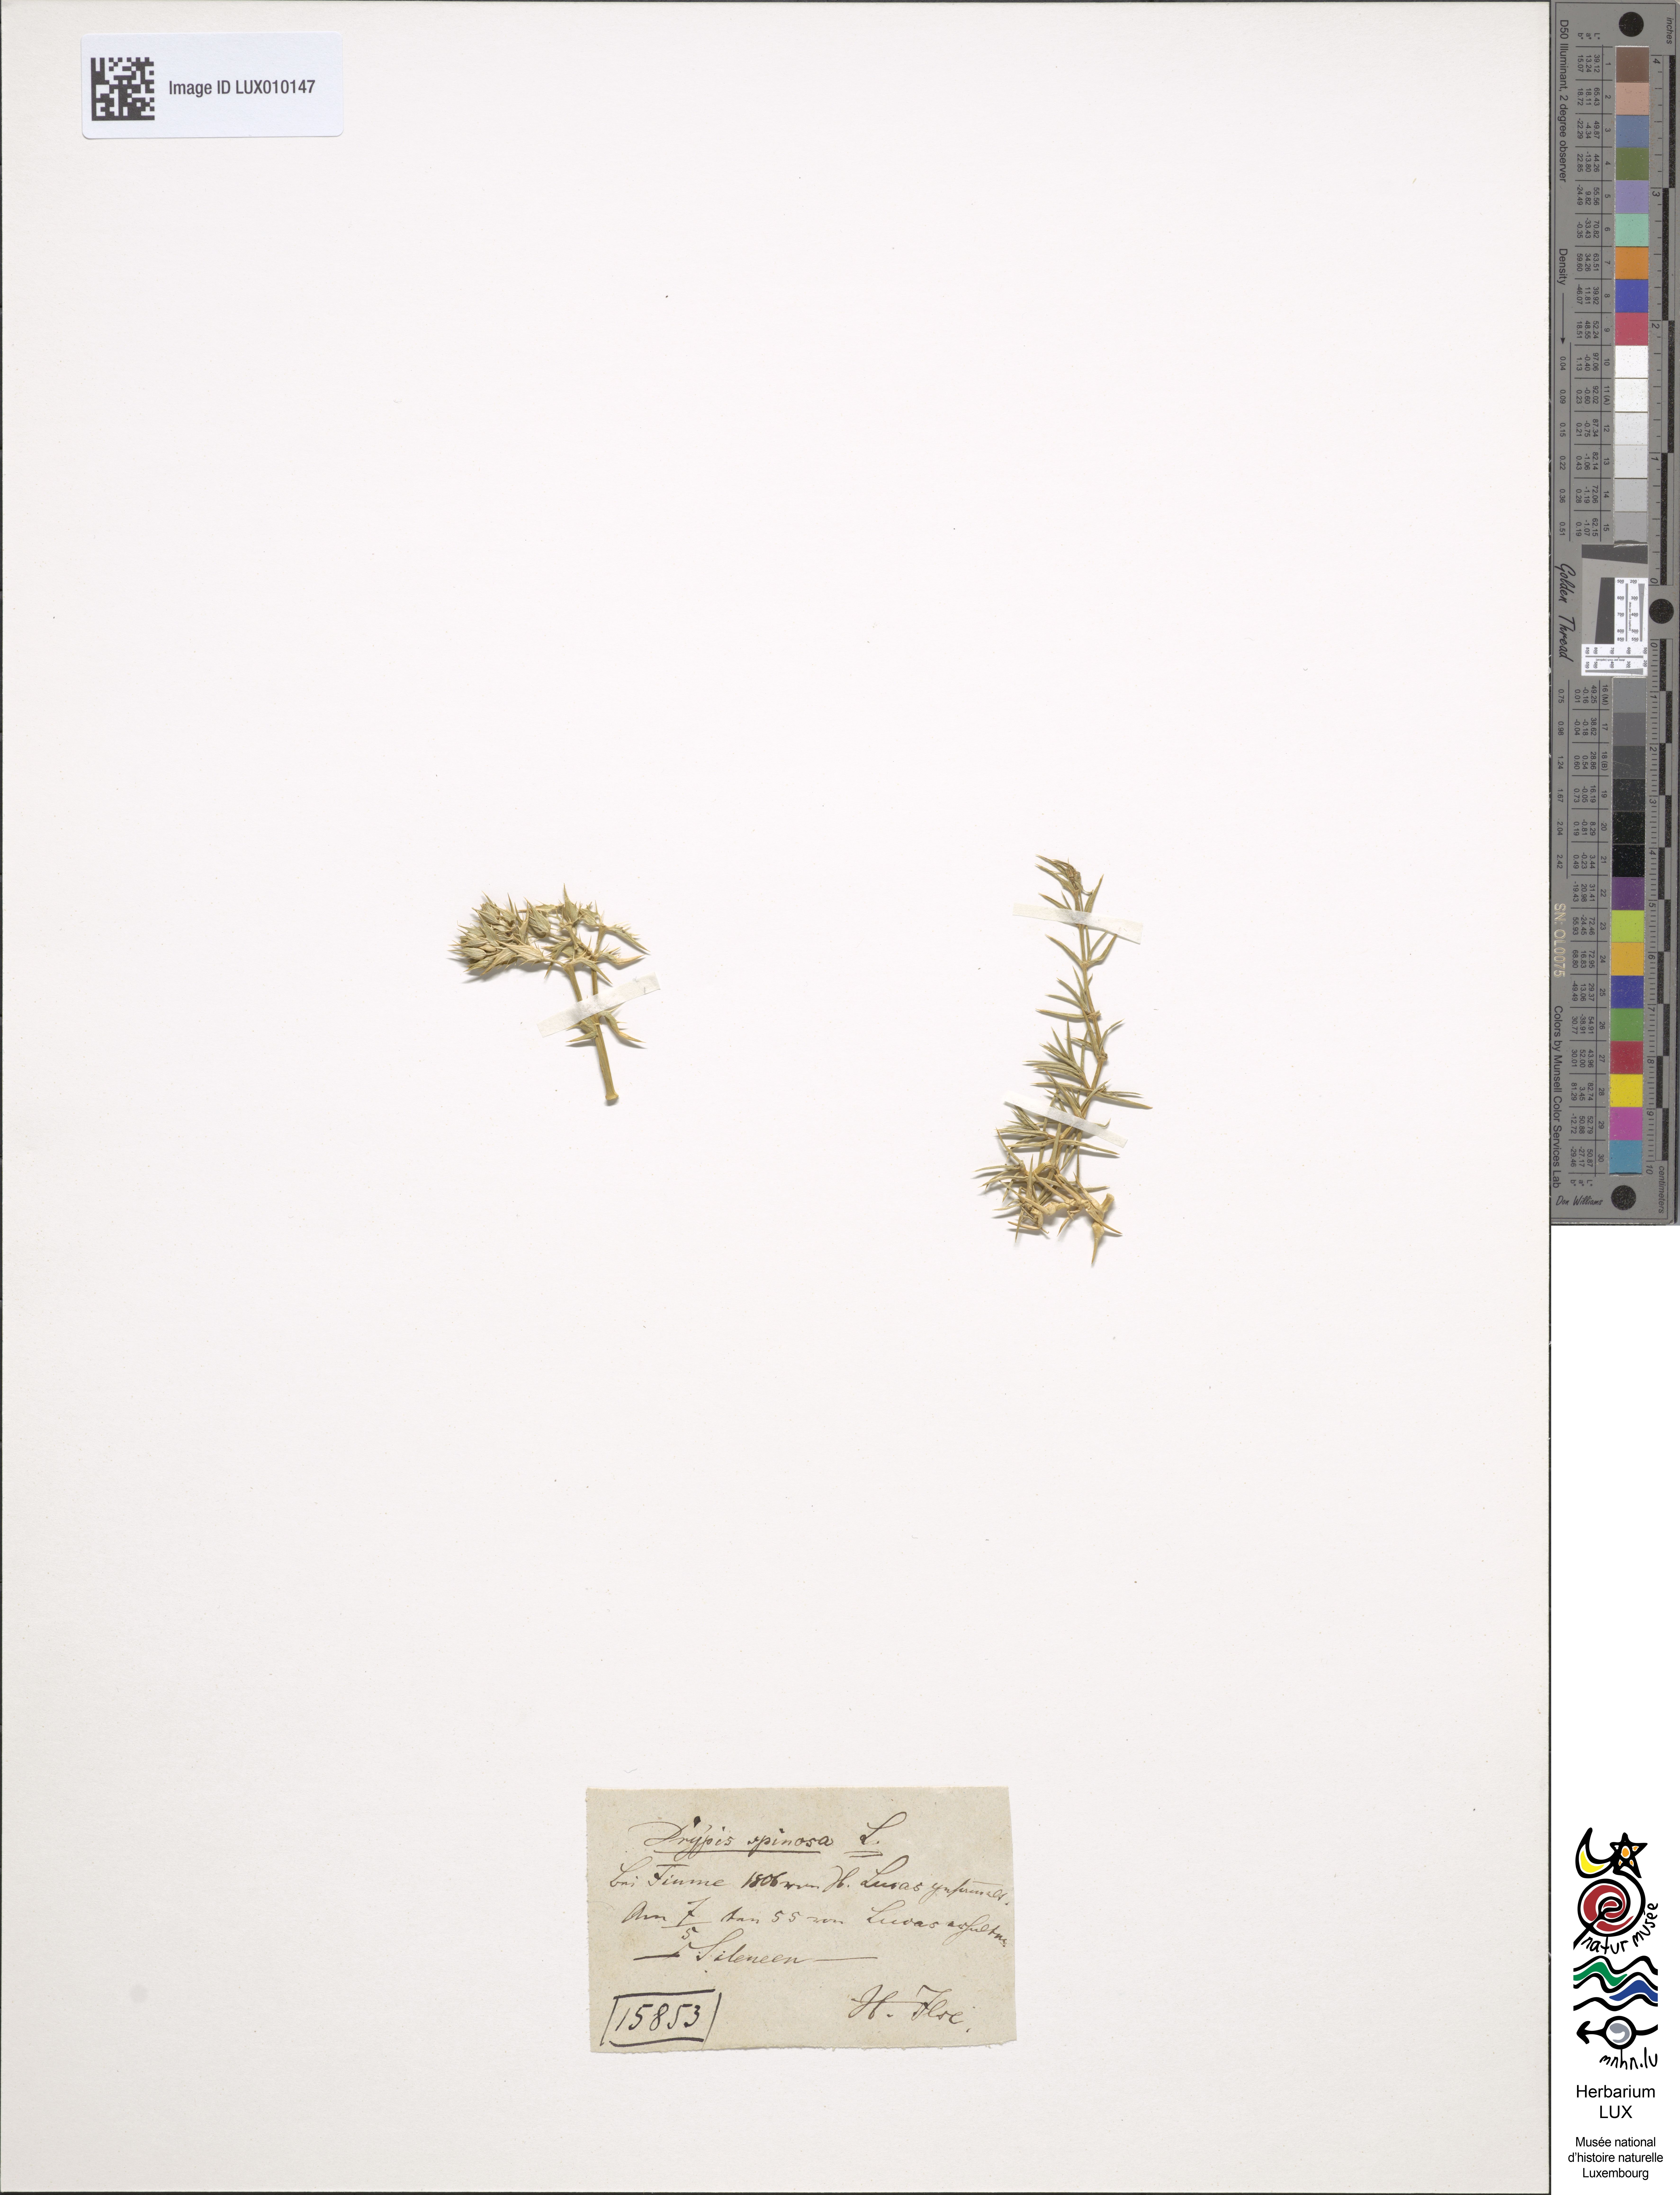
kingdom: Plantae
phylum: Tracheophyta
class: Magnoliopsida
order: Caryophyllales
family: Caryophyllaceae
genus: Drypis
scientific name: Drypis spinosa
